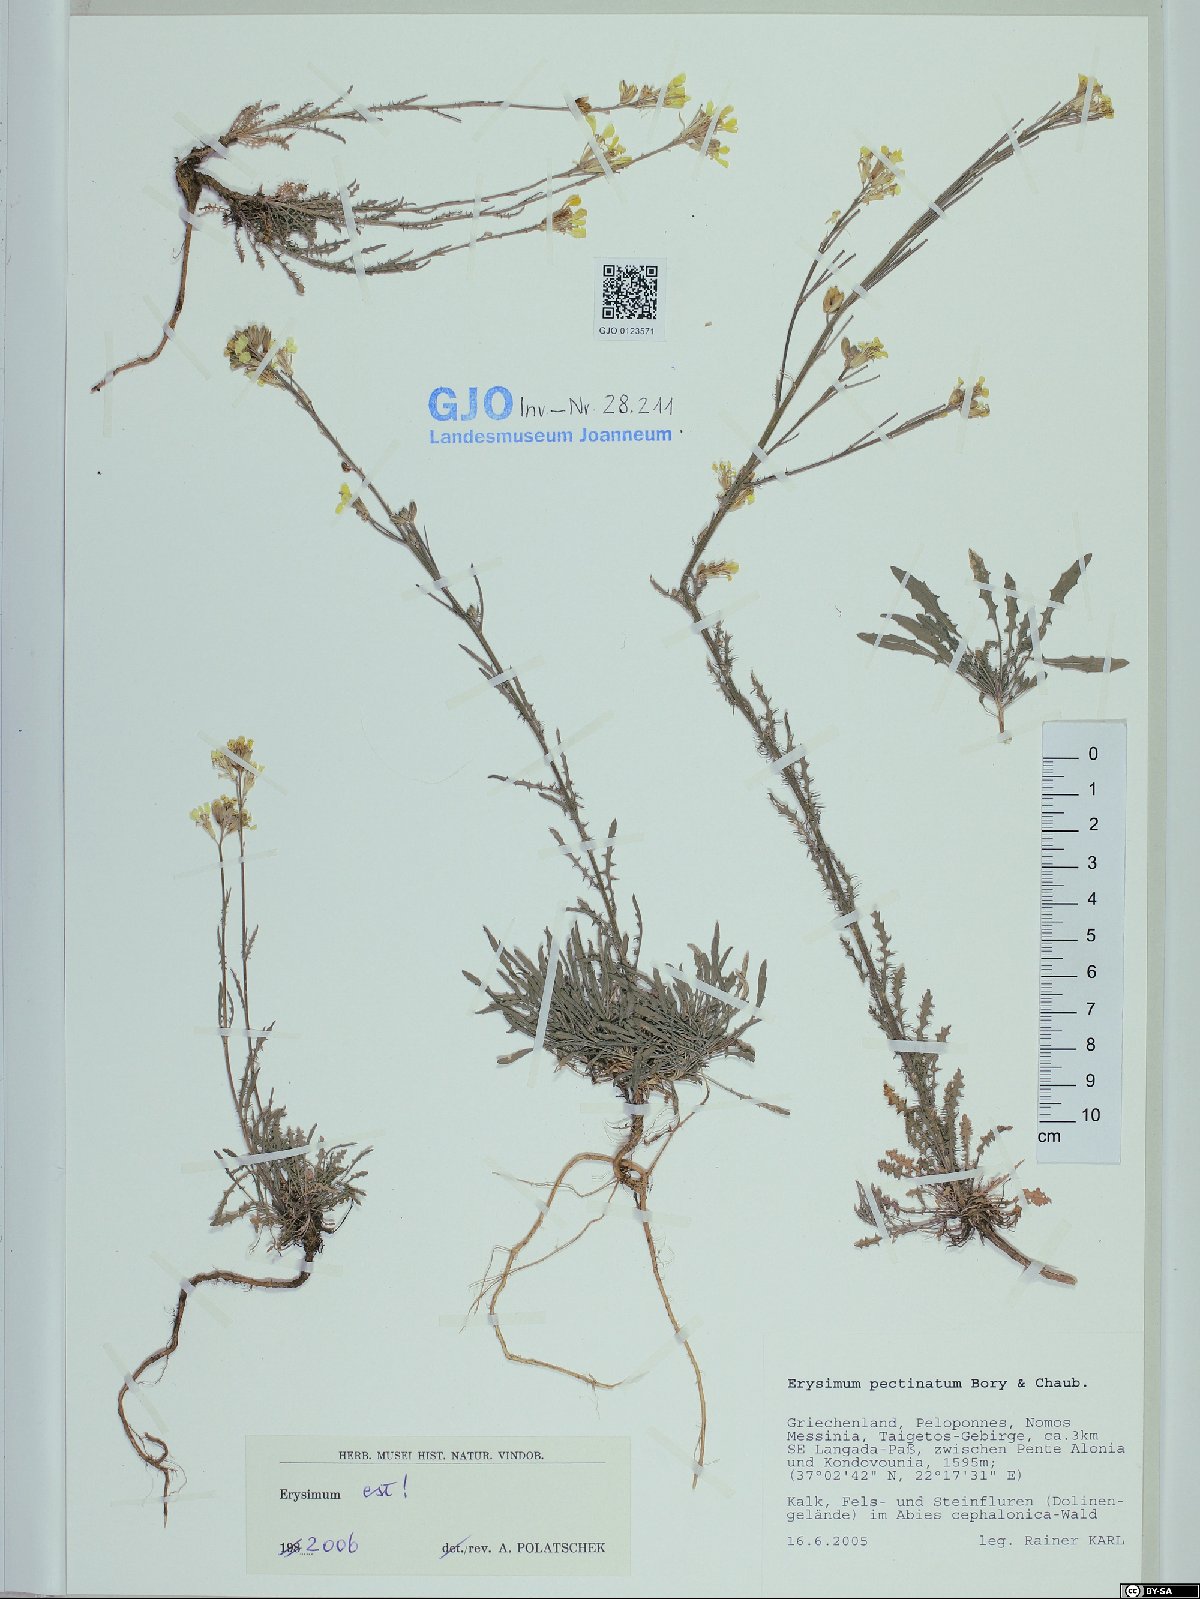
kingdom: Plantae
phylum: Tracheophyta
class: Magnoliopsida
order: Brassicales
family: Brassicaceae
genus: Erysimum
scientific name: Erysimum pectinatum
